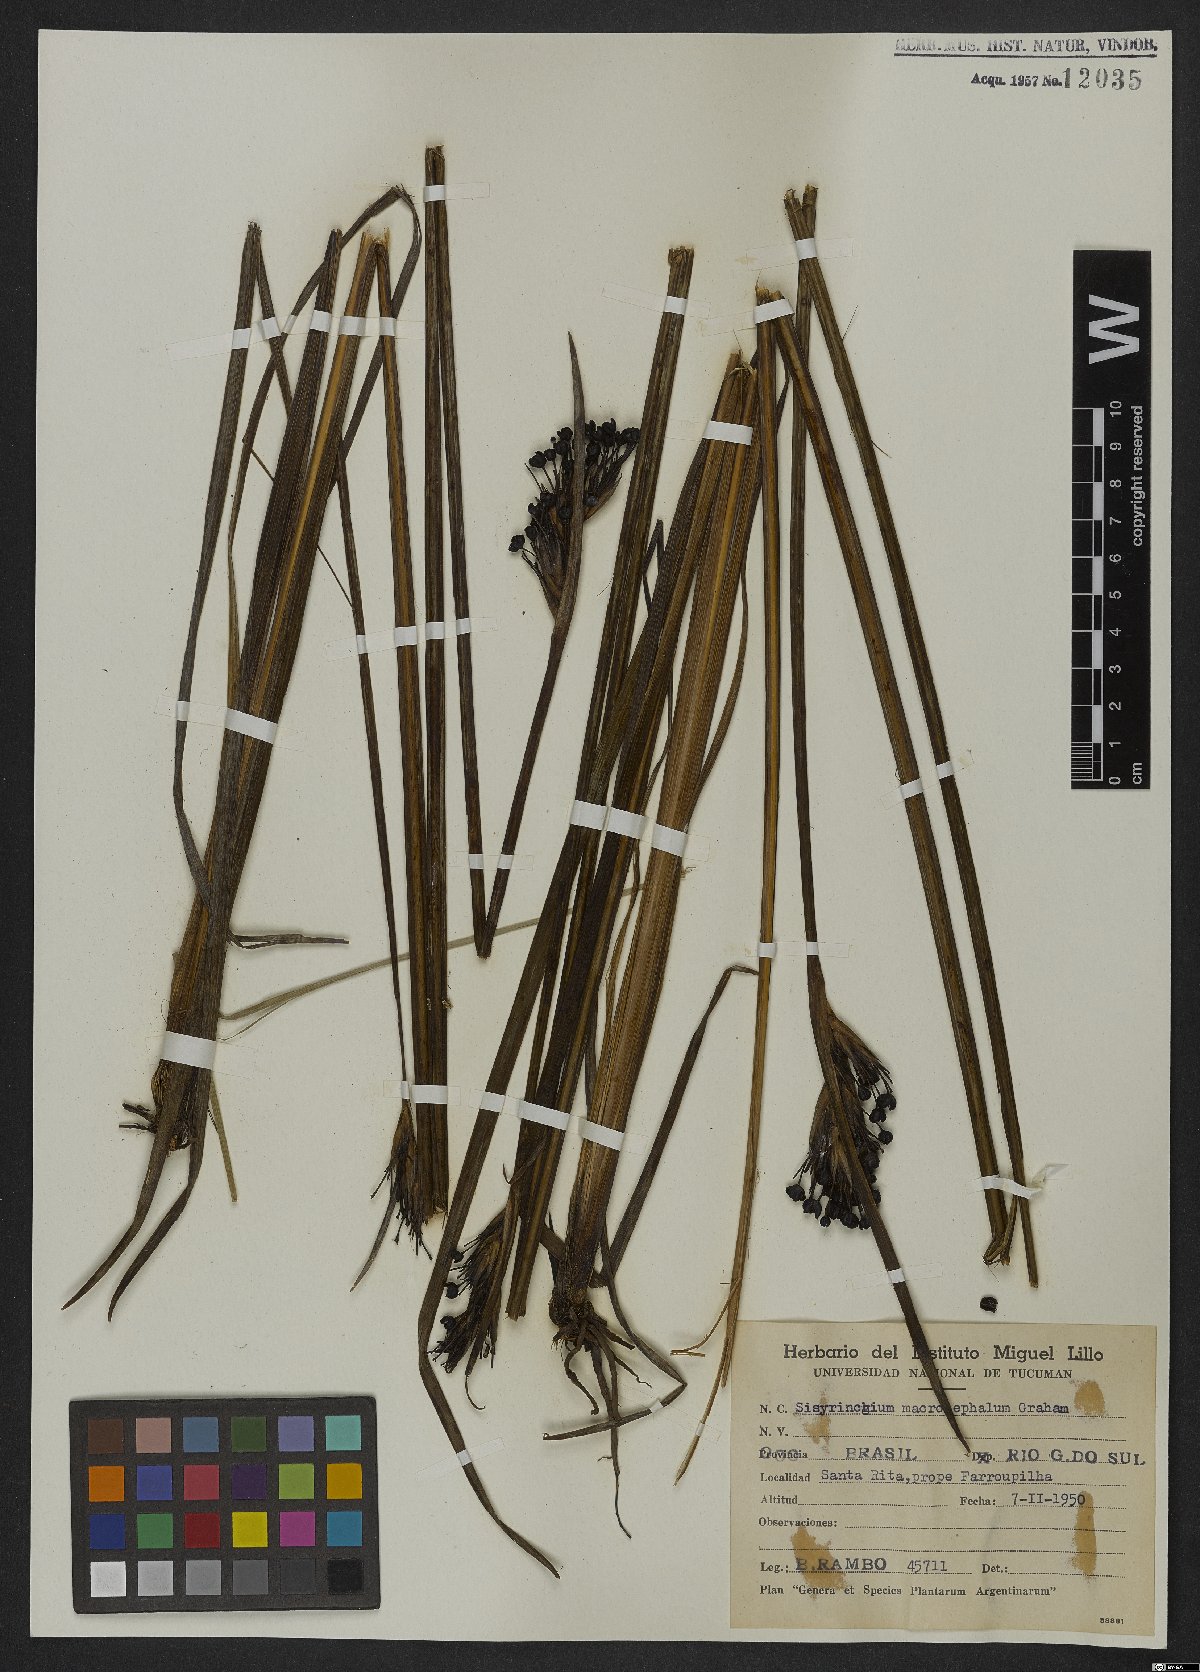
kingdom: Plantae
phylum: Tracheophyta
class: Liliopsida
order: Asparagales
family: Iridaceae
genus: Sisyrinchium
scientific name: Sisyrinchium palmifolium
